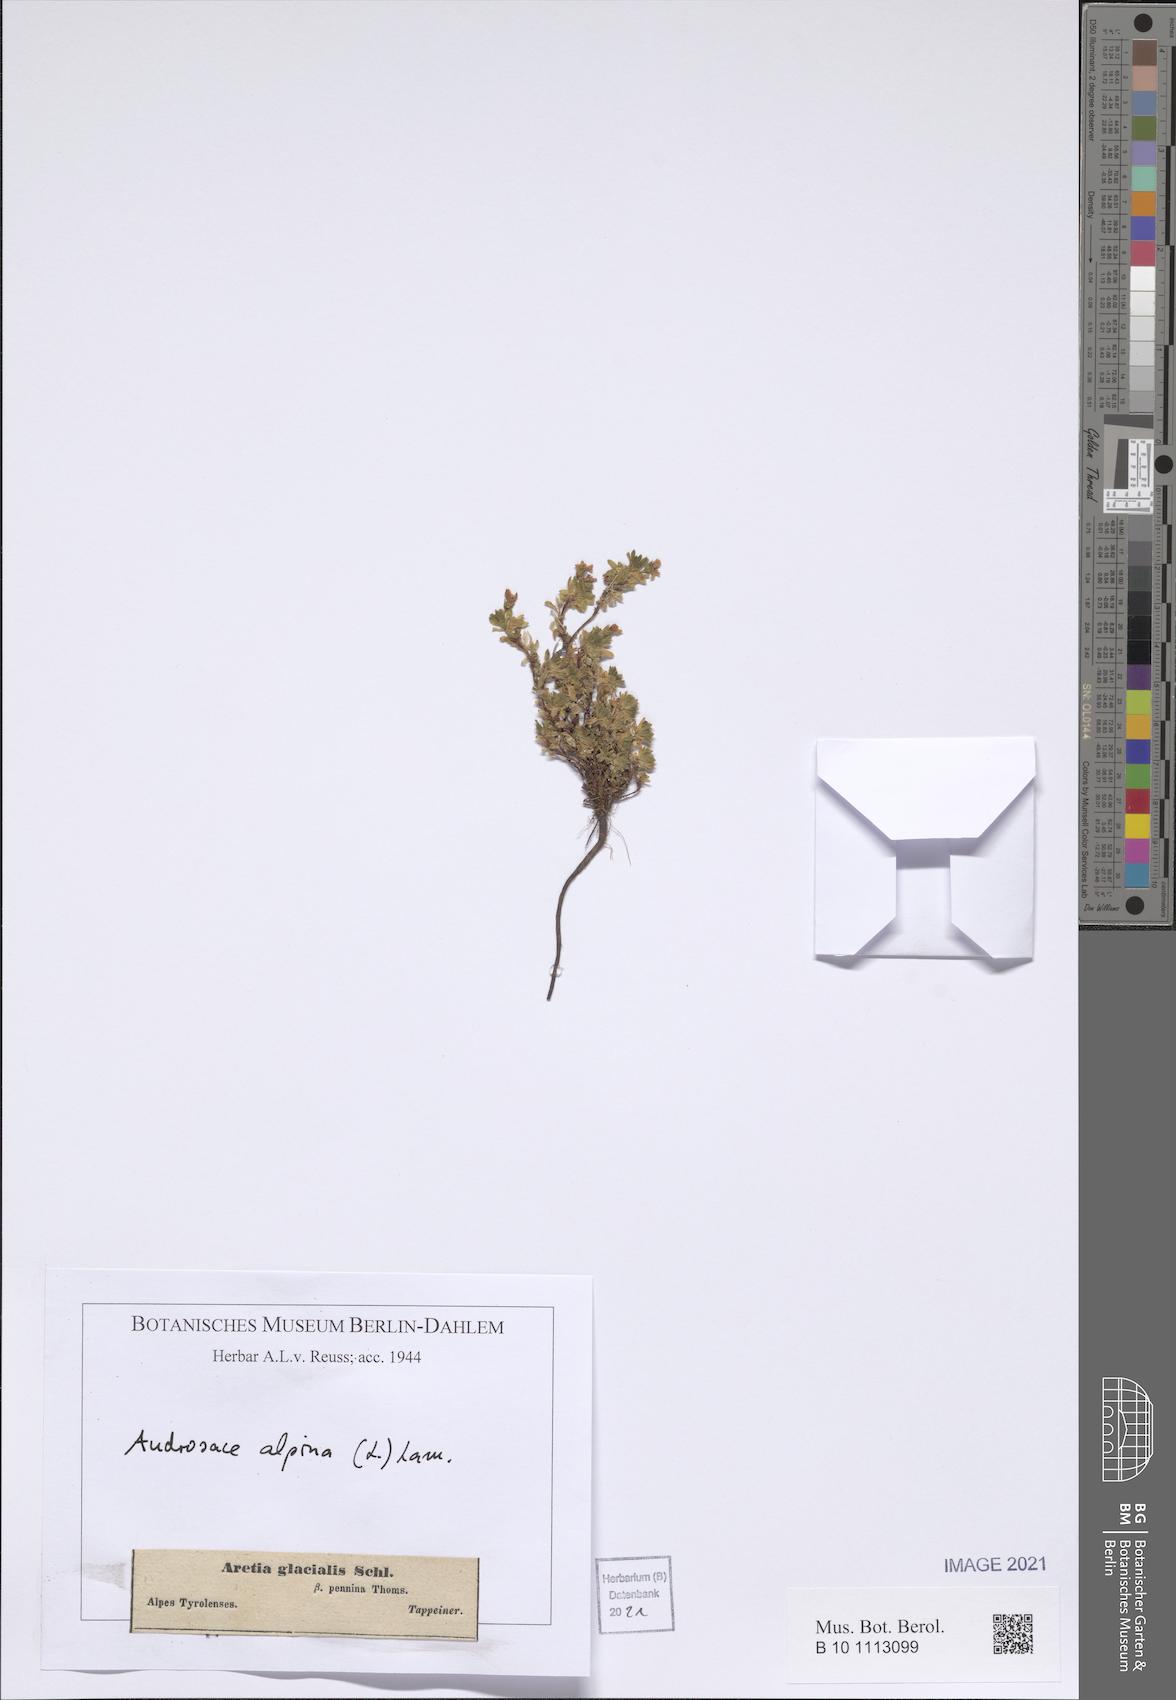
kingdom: Plantae
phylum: Tracheophyta
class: Magnoliopsida
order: Ericales
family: Primulaceae
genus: Androsace
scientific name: Androsace alpina
